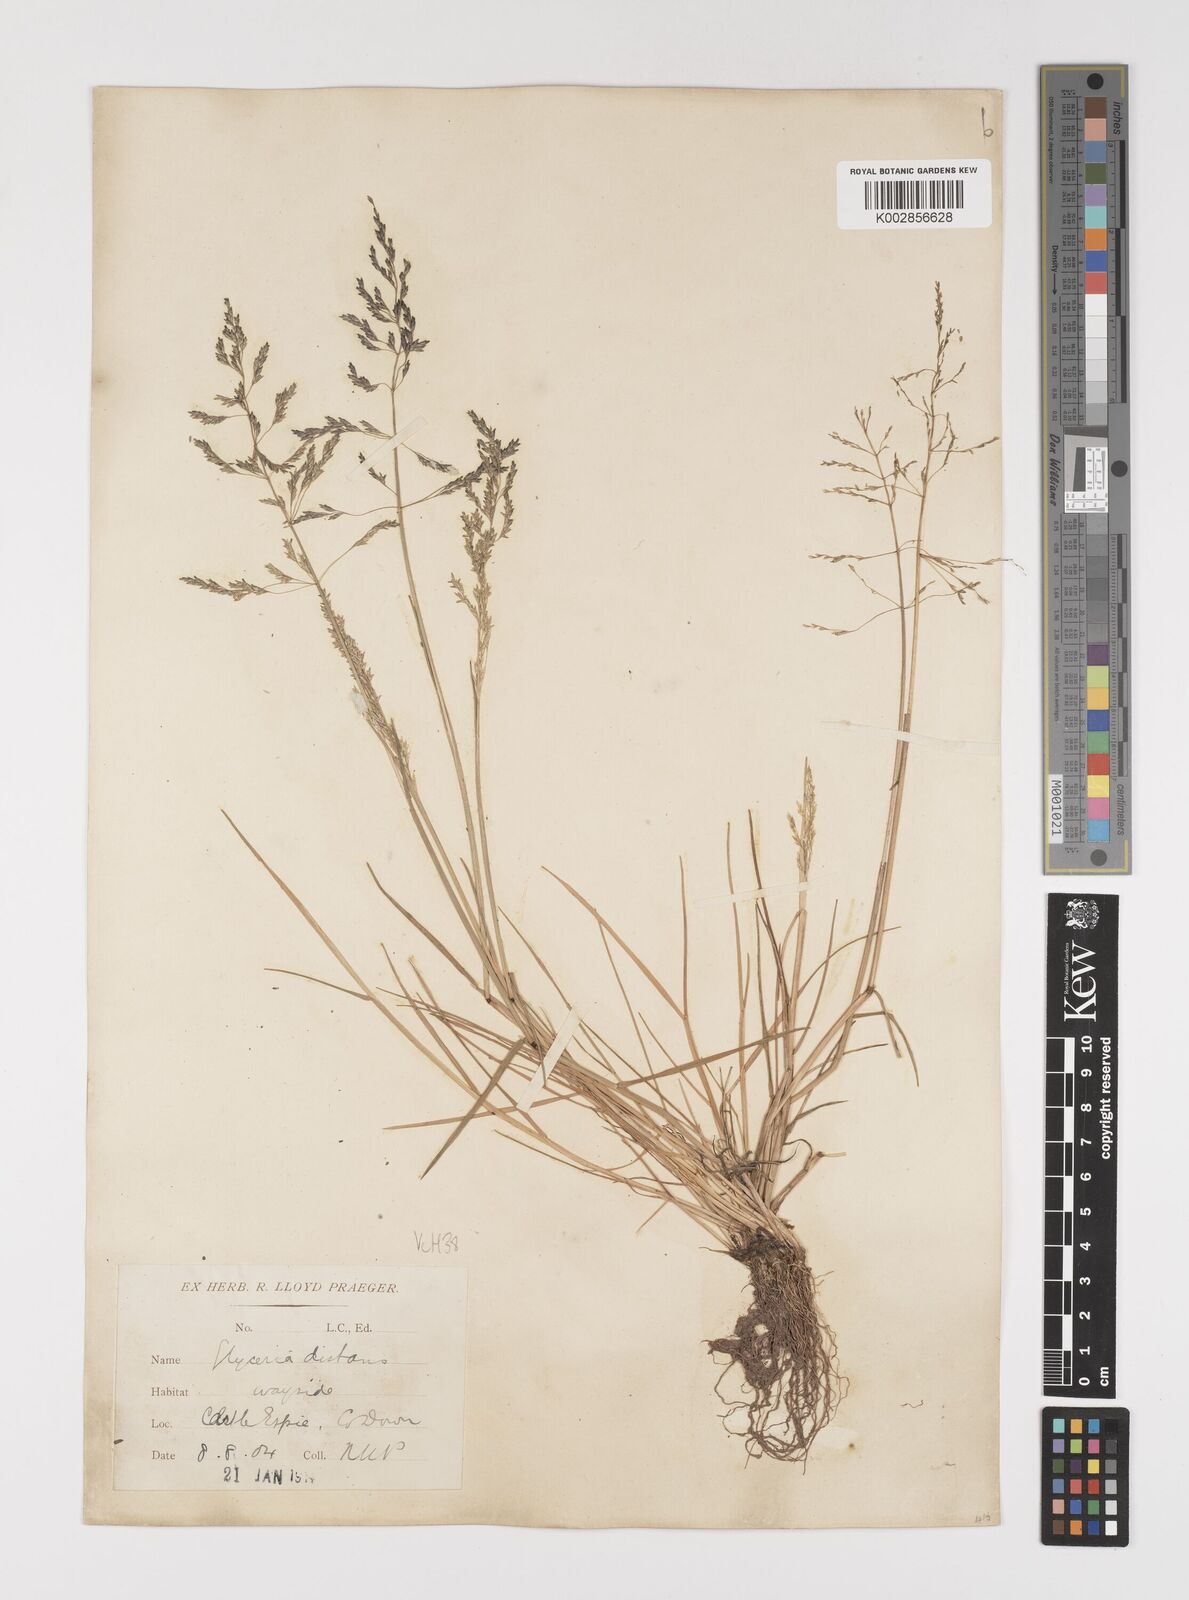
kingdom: Plantae
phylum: Tracheophyta
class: Liliopsida
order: Poales
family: Poaceae
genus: Puccinellia
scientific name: Puccinellia distans
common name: Weeping alkaligrass
